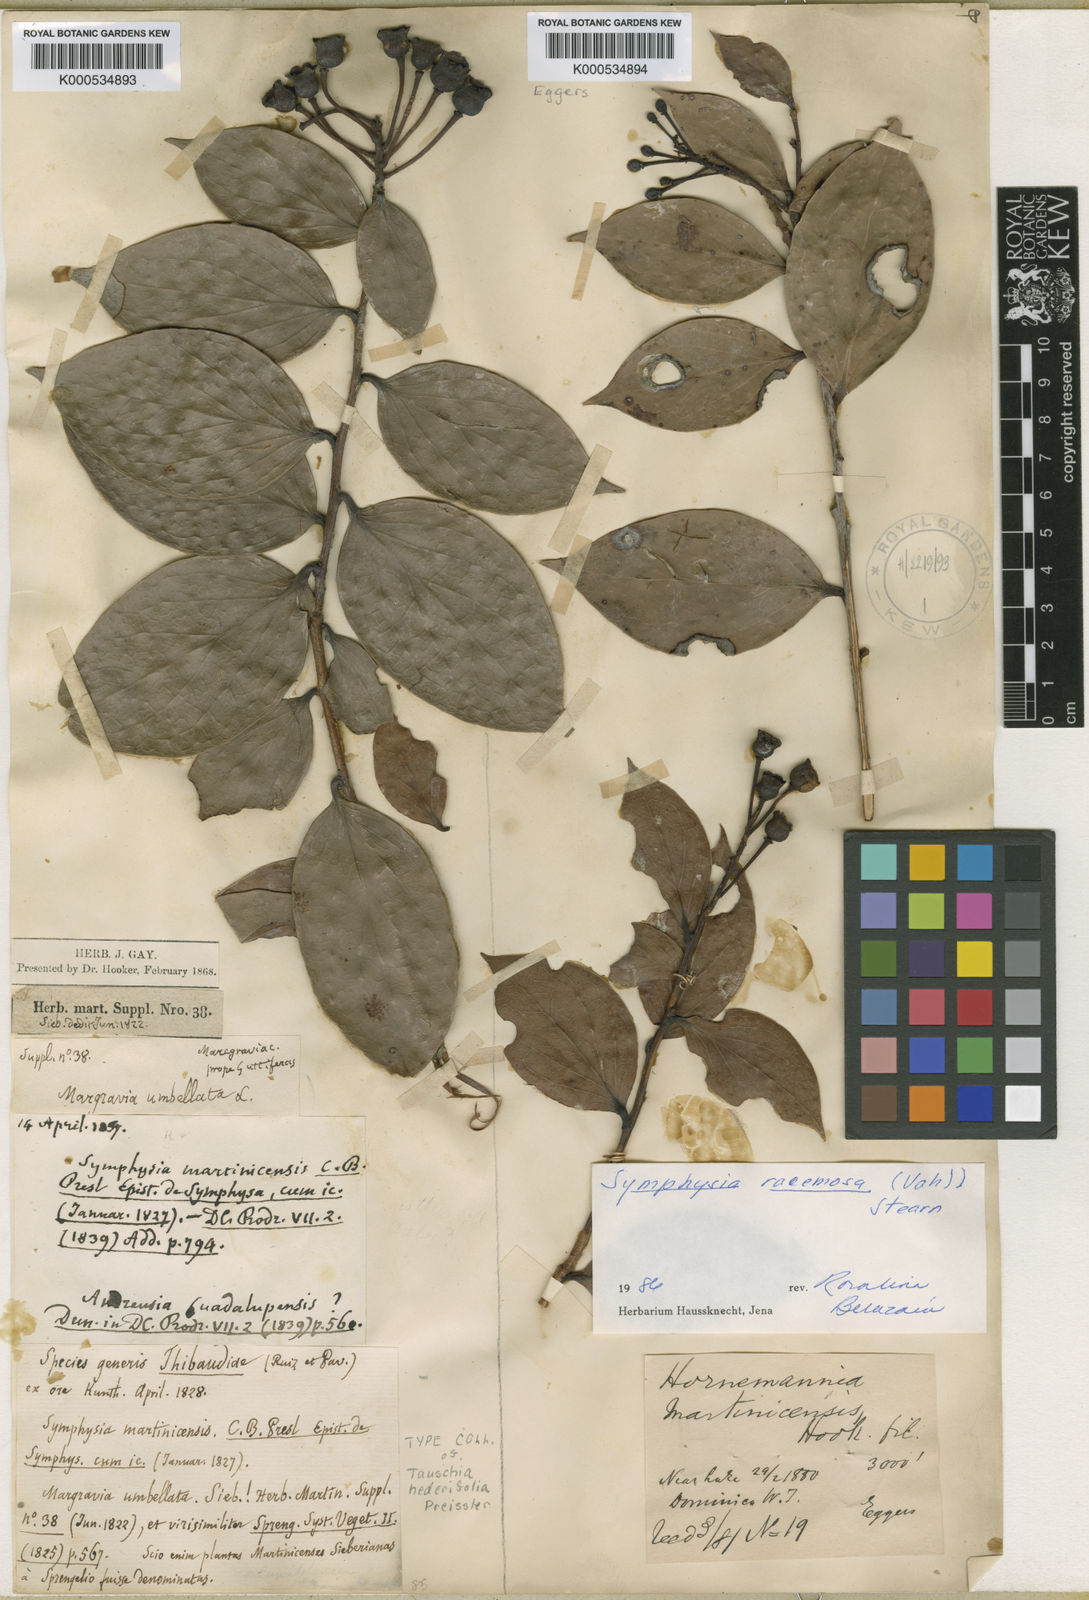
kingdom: Plantae
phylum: Tracheophyta
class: Magnoliopsida
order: Ericales
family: Ericaceae
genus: Symphysia
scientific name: Symphysia racemosa
